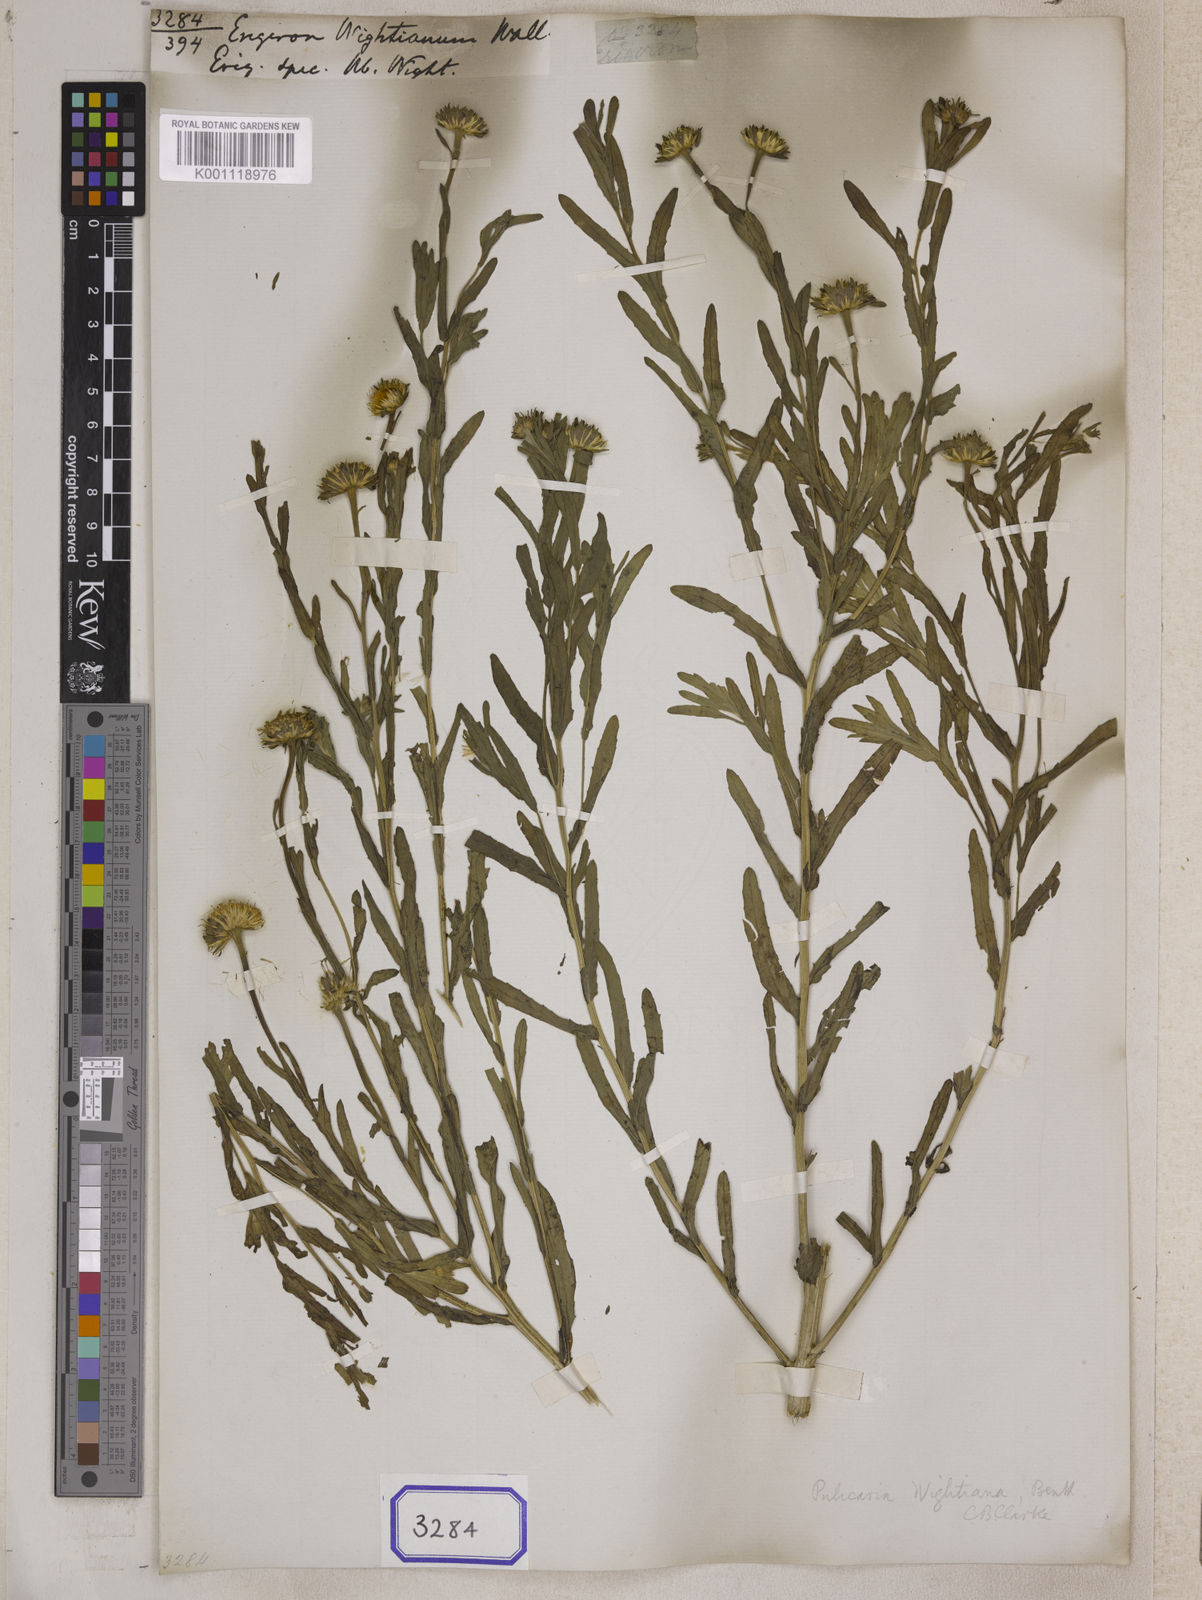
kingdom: Plantae
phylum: Tracheophyta
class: Magnoliopsida
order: Asterales
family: Asteraceae
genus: Pulicaria
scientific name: Pulicaria wightiana
